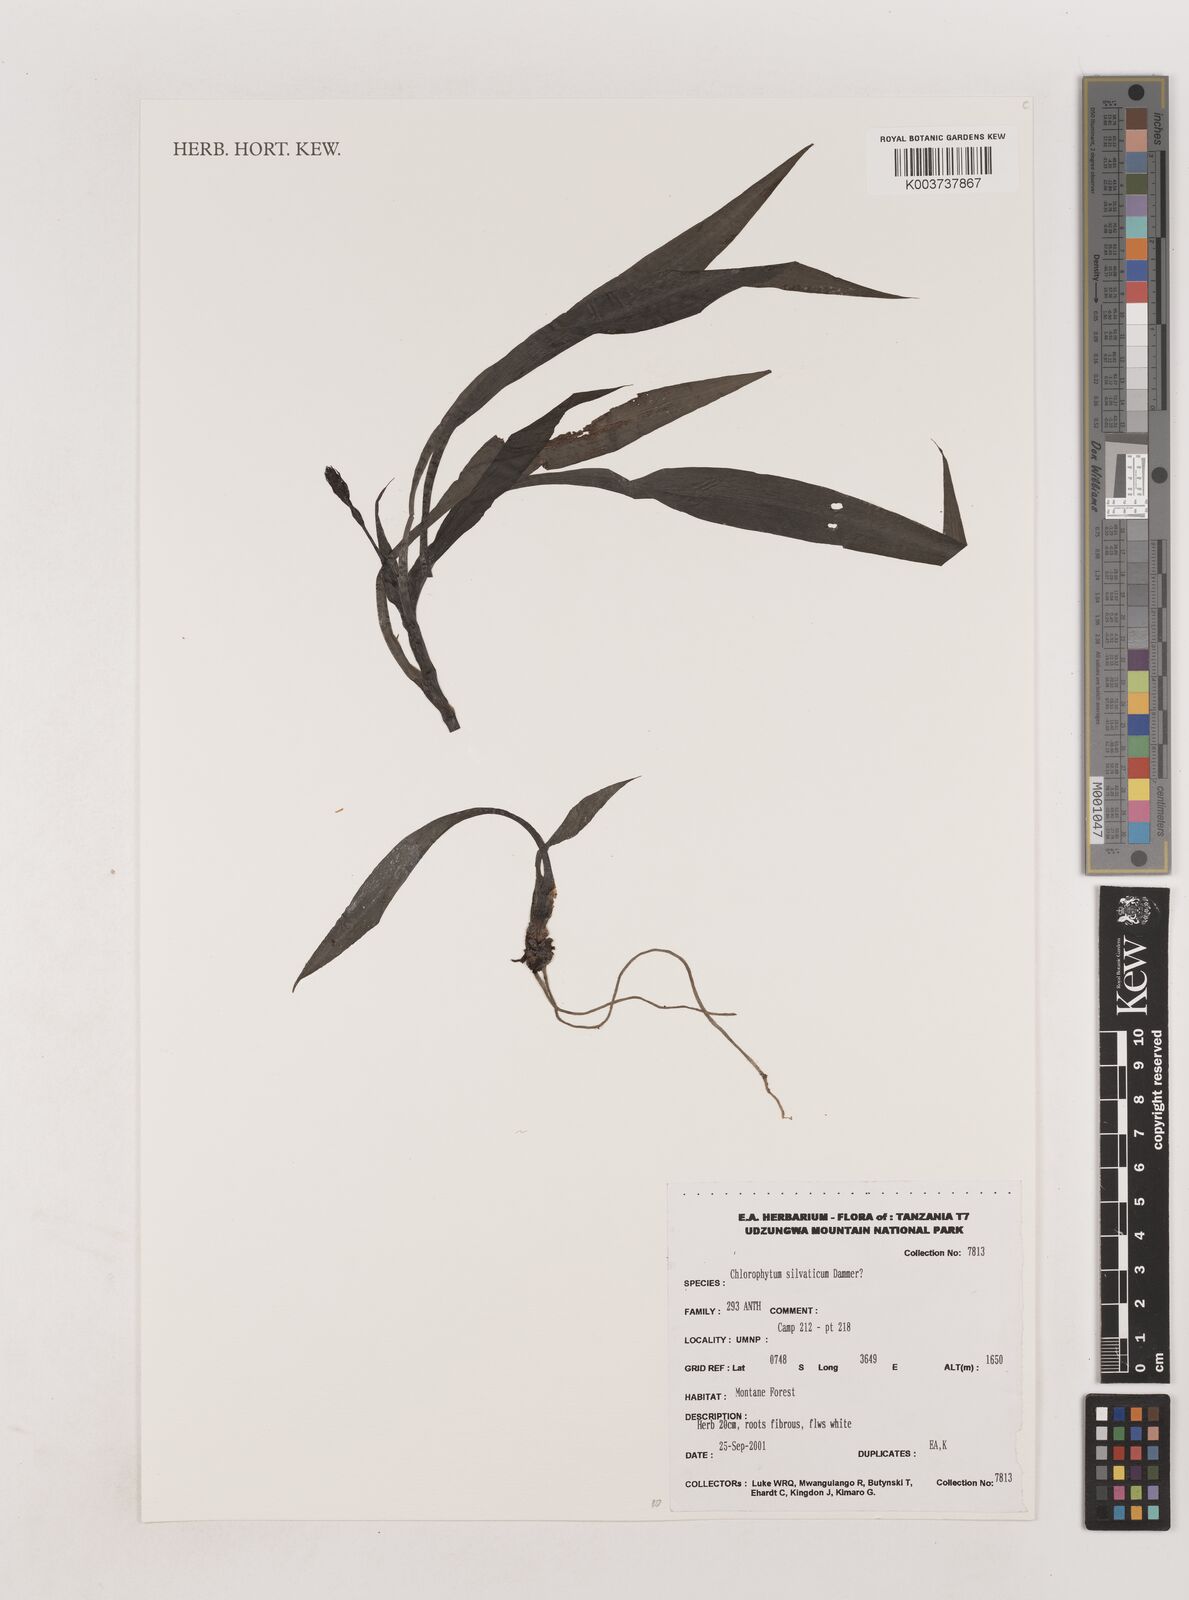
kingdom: Plantae
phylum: Tracheophyta
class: Liliopsida
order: Asparagales
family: Asparagaceae
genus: Chlorophytum
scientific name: Chlorophytum africanum
